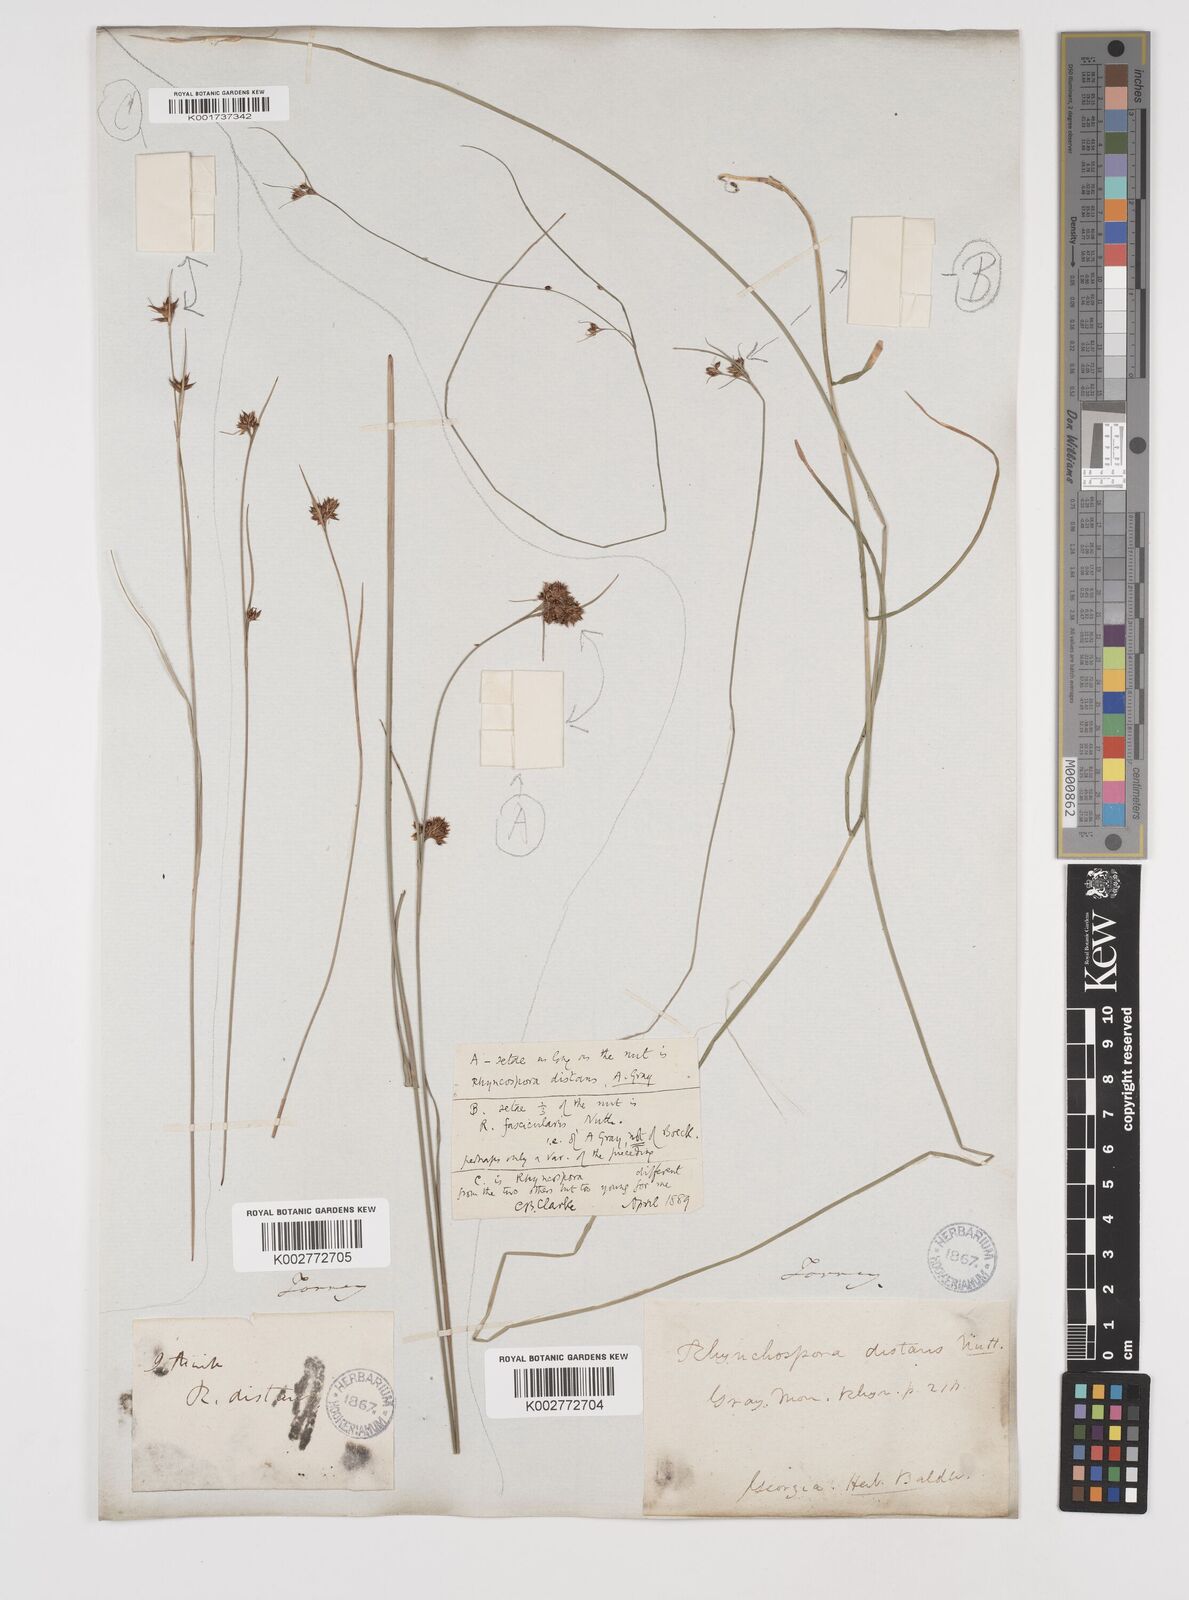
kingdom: Plantae
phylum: Tracheophyta
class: Liliopsida
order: Poales
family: Cyperaceae
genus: Rhynchospora
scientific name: Rhynchospora fascicularis
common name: Fascicled beak sedge
